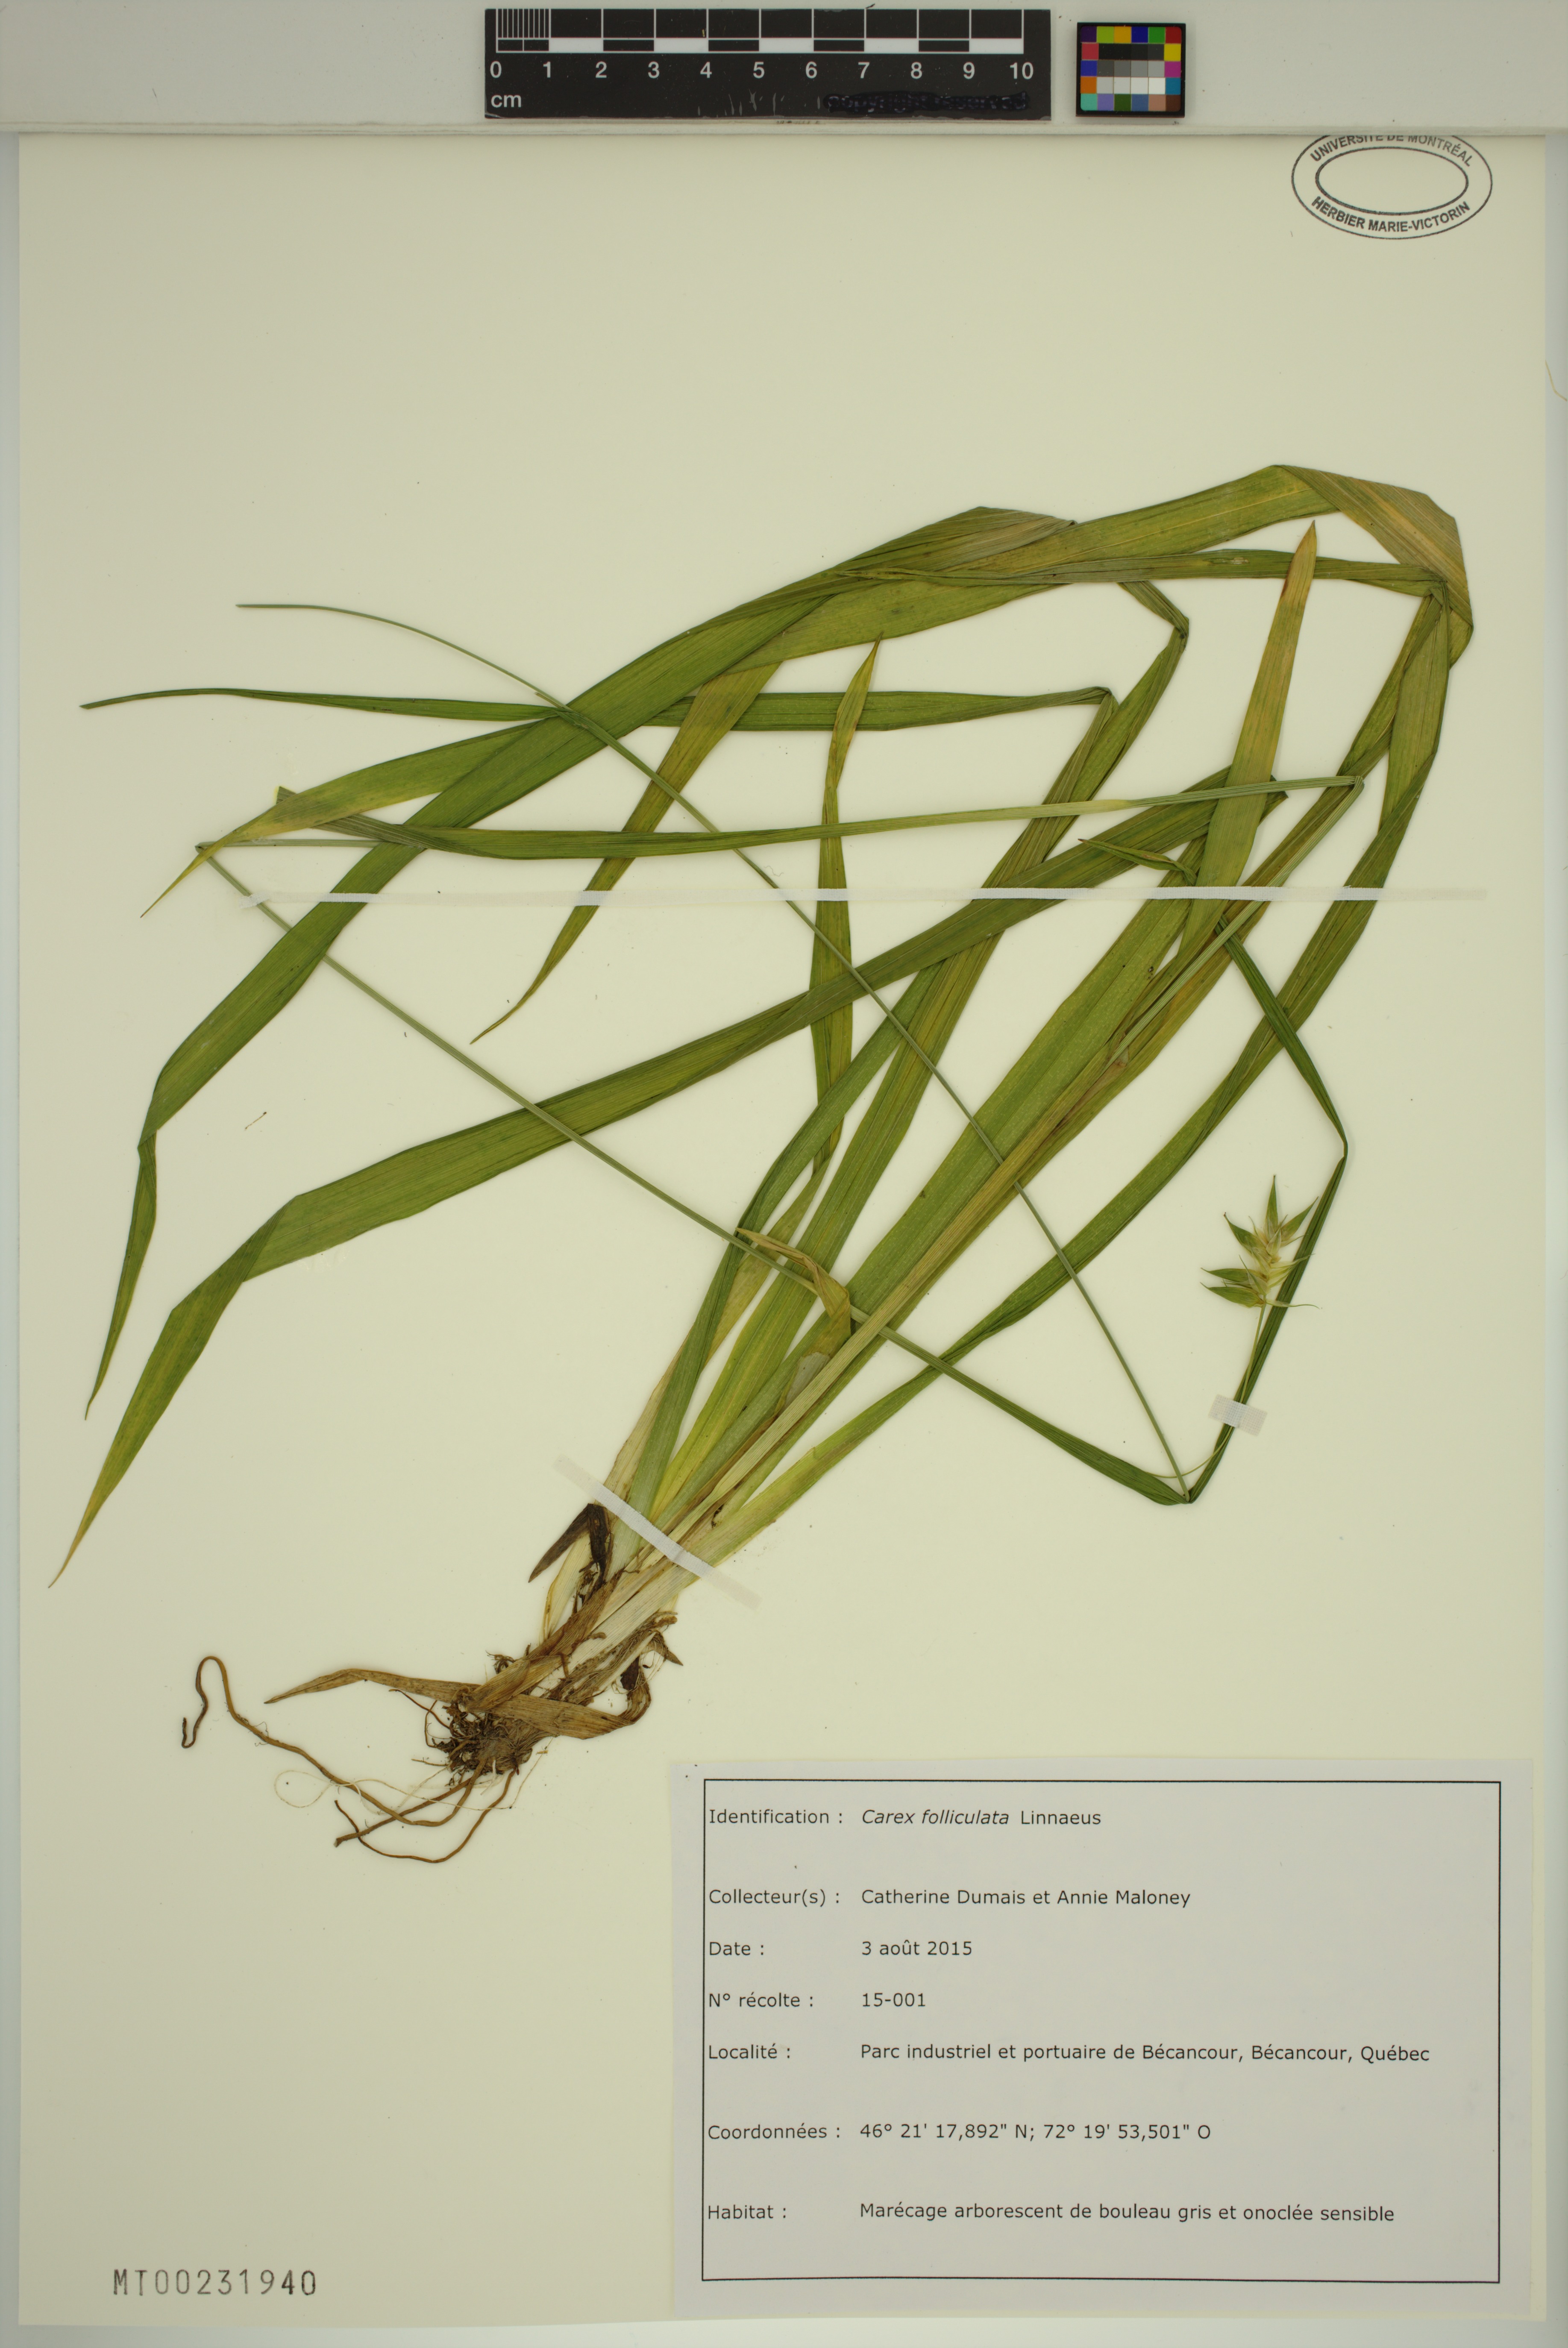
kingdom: Plantae
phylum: Tracheophyta
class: Liliopsida
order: Poales
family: Cyperaceae
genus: Carex
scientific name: Carex folliculata
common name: Northern long sedge
